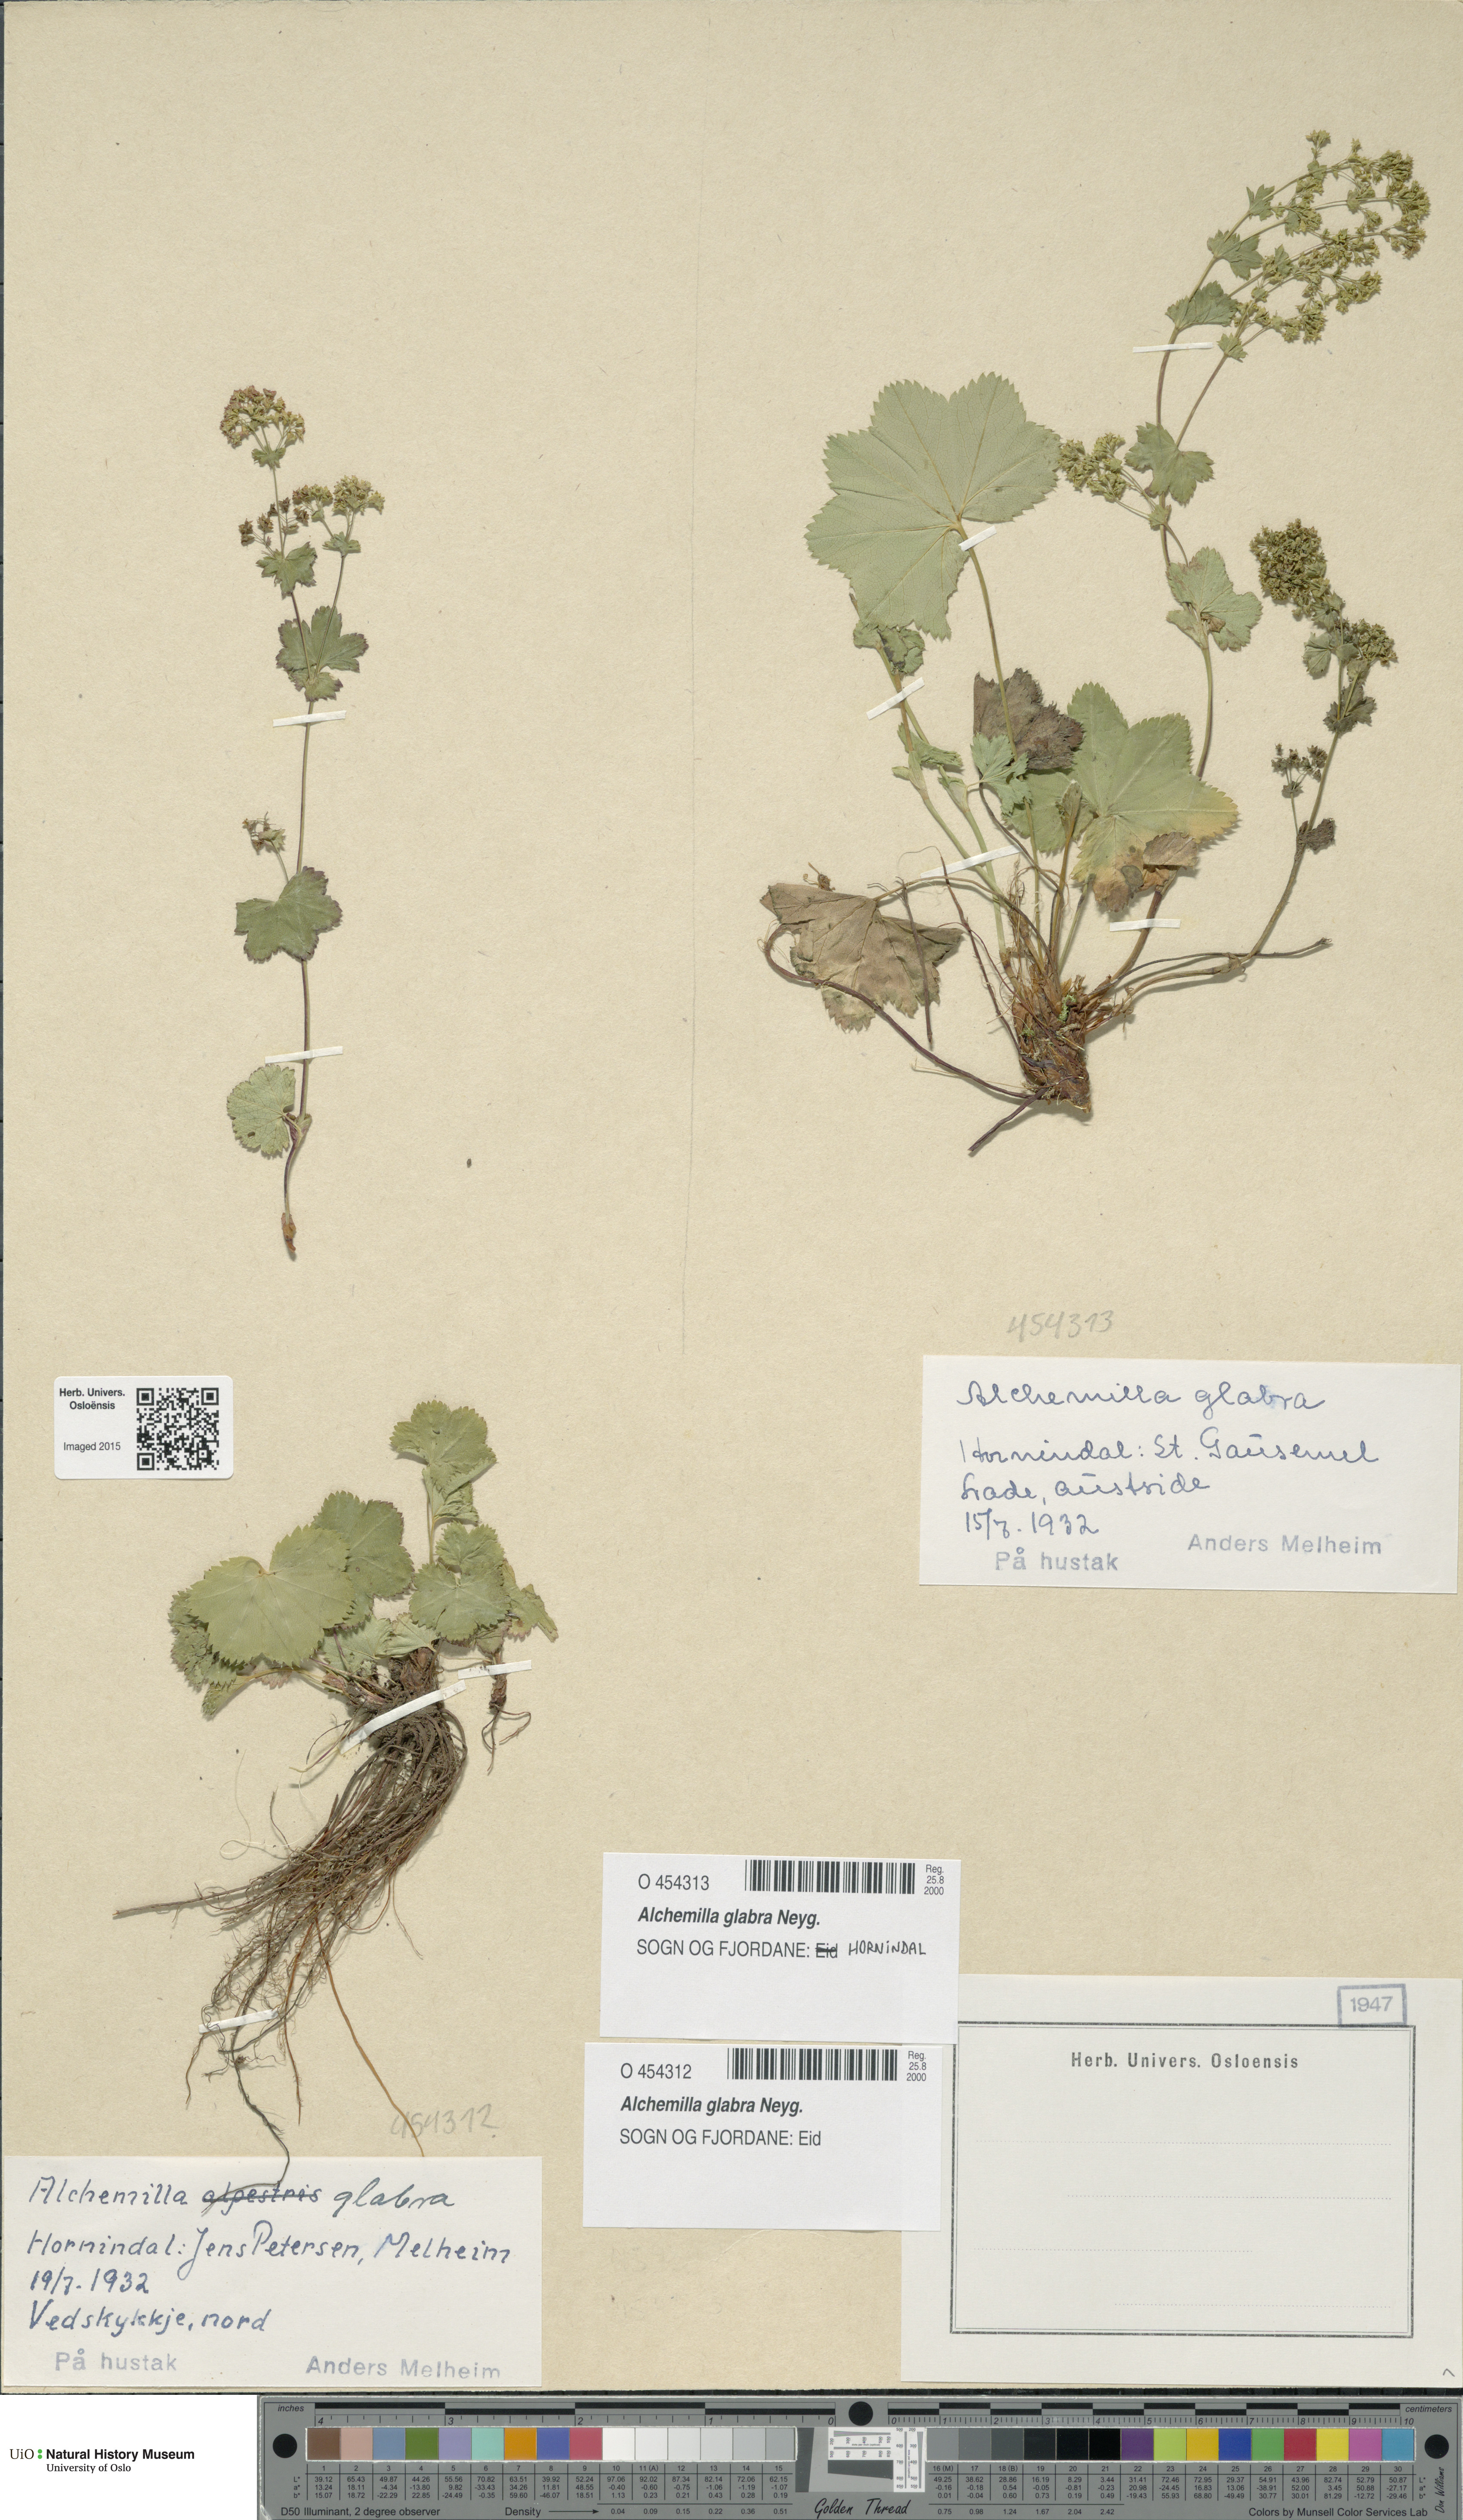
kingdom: Plantae
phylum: Tracheophyta
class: Magnoliopsida
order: Rosales
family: Rosaceae
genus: Alchemilla
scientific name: Alchemilla glabra
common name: Smooth lady's-mantle
